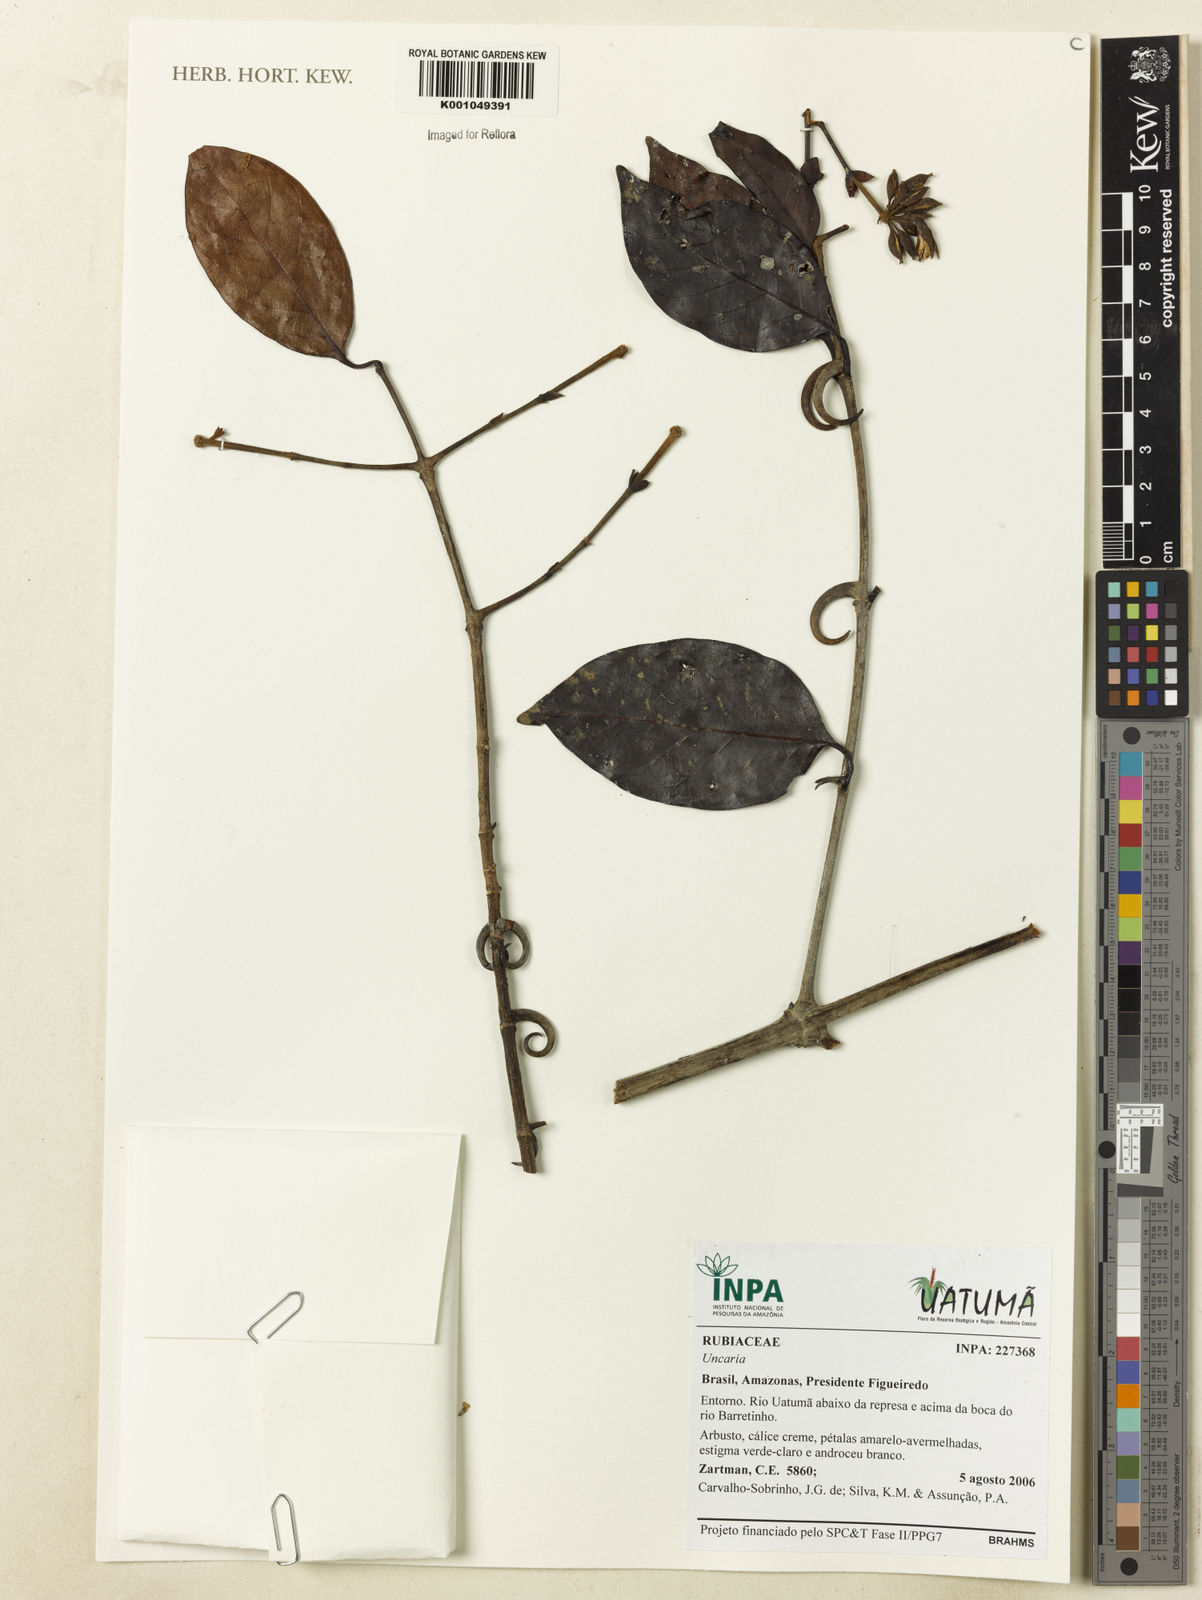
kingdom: Plantae
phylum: Tracheophyta
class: Magnoliopsida
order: Gentianales
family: Rubiaceae
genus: Uncaria
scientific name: Uncaria
